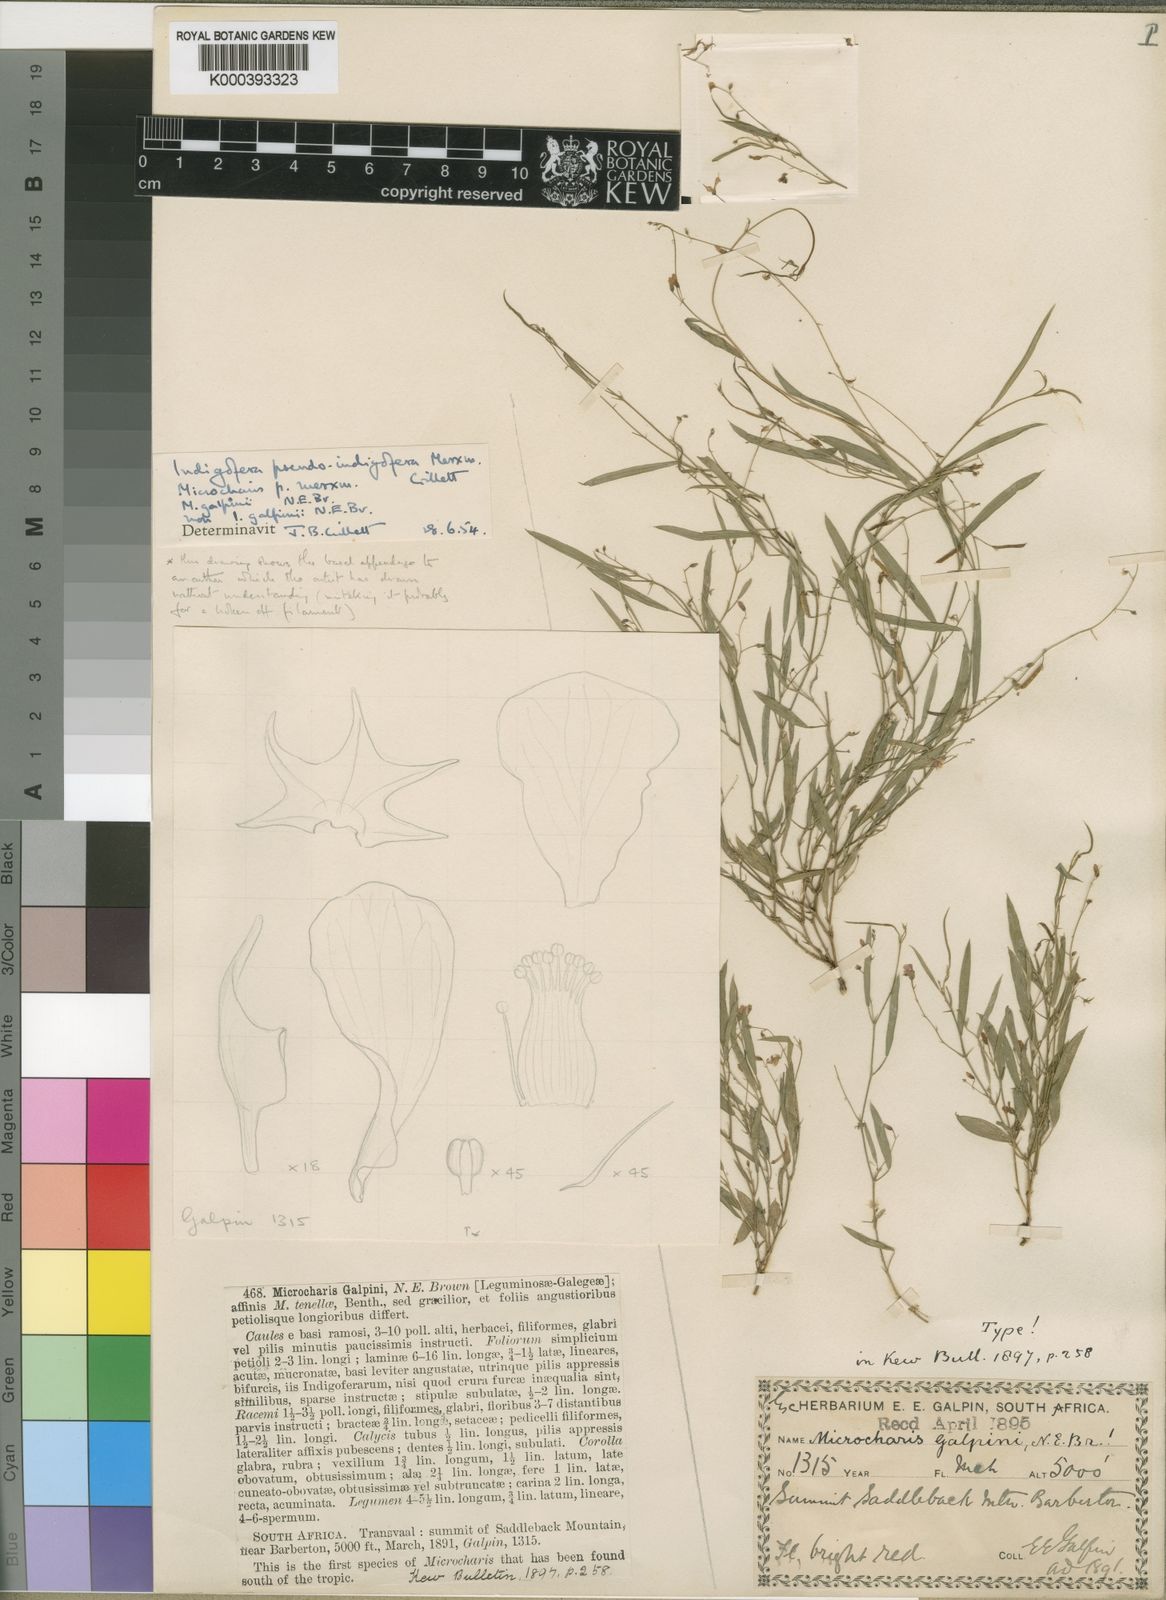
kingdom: Plantae
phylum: Tracheophyta
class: Magnoliopsida
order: Fabales
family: Fabaceae
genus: Microcharis
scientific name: Microcharis galpinii
